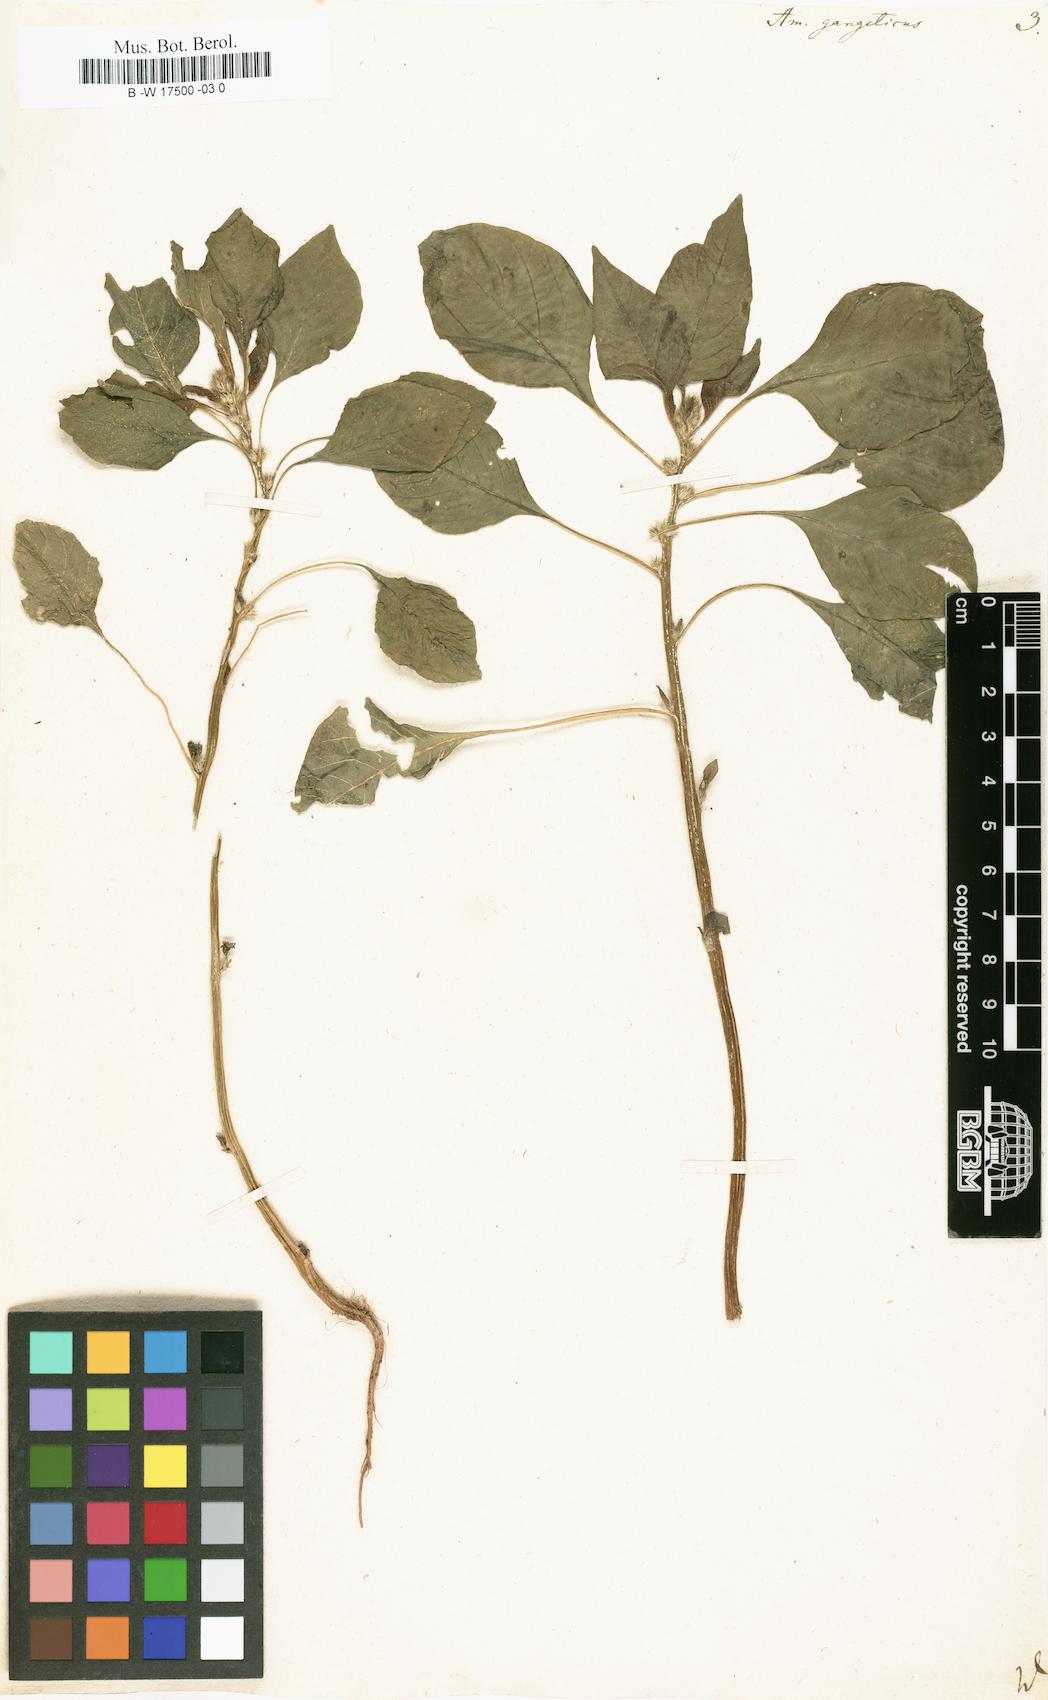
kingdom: Plantae
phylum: Tracheophyta
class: Magnoliopsida
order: Caryophyllales
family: Amaranthaceae
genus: Amaranthus
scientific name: Amaranthus tricolor
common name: Joseph's-coat
